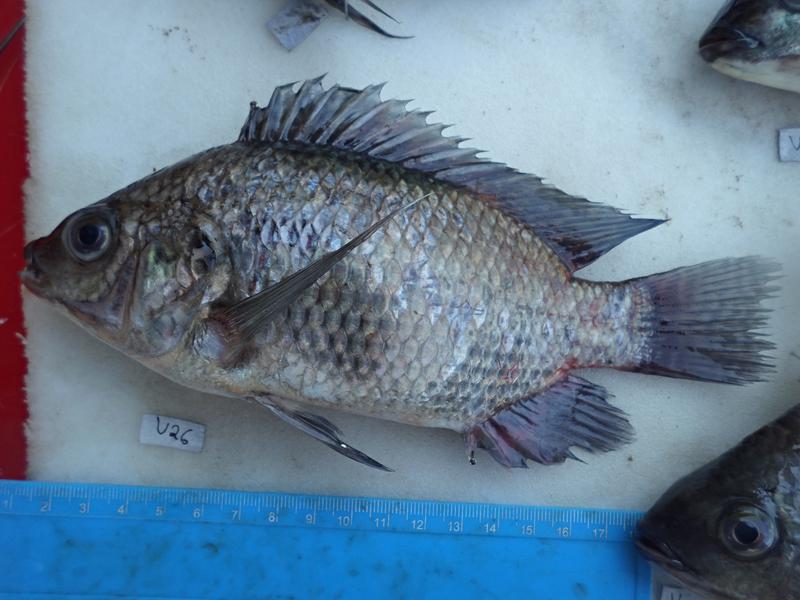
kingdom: Animalia
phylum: Chordata
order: Perciformes
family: Cichlidae
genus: Oreochromis
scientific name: Oreochromis niloticus
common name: Nile tilapia
